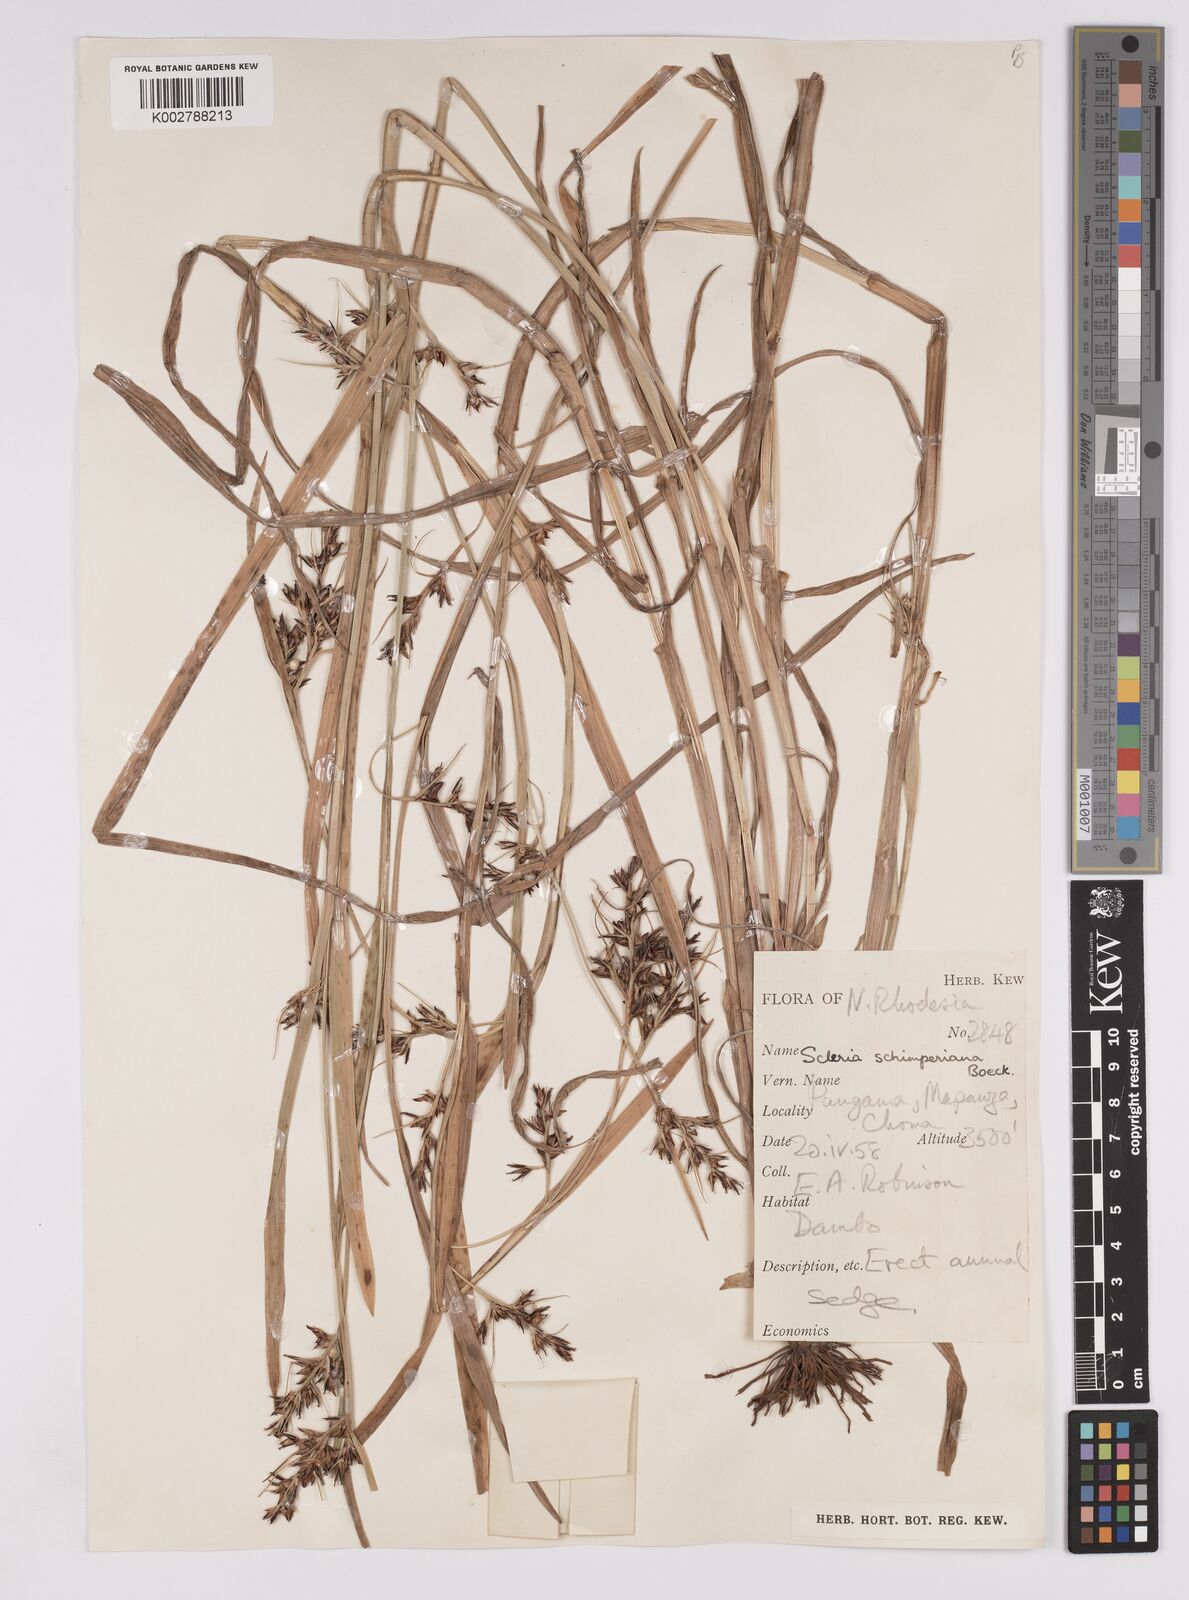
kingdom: Plantae
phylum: Tracheophyta
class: Liliopsida
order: Poales
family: Cyperaceae
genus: Scleria
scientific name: Scleria schimperiana
